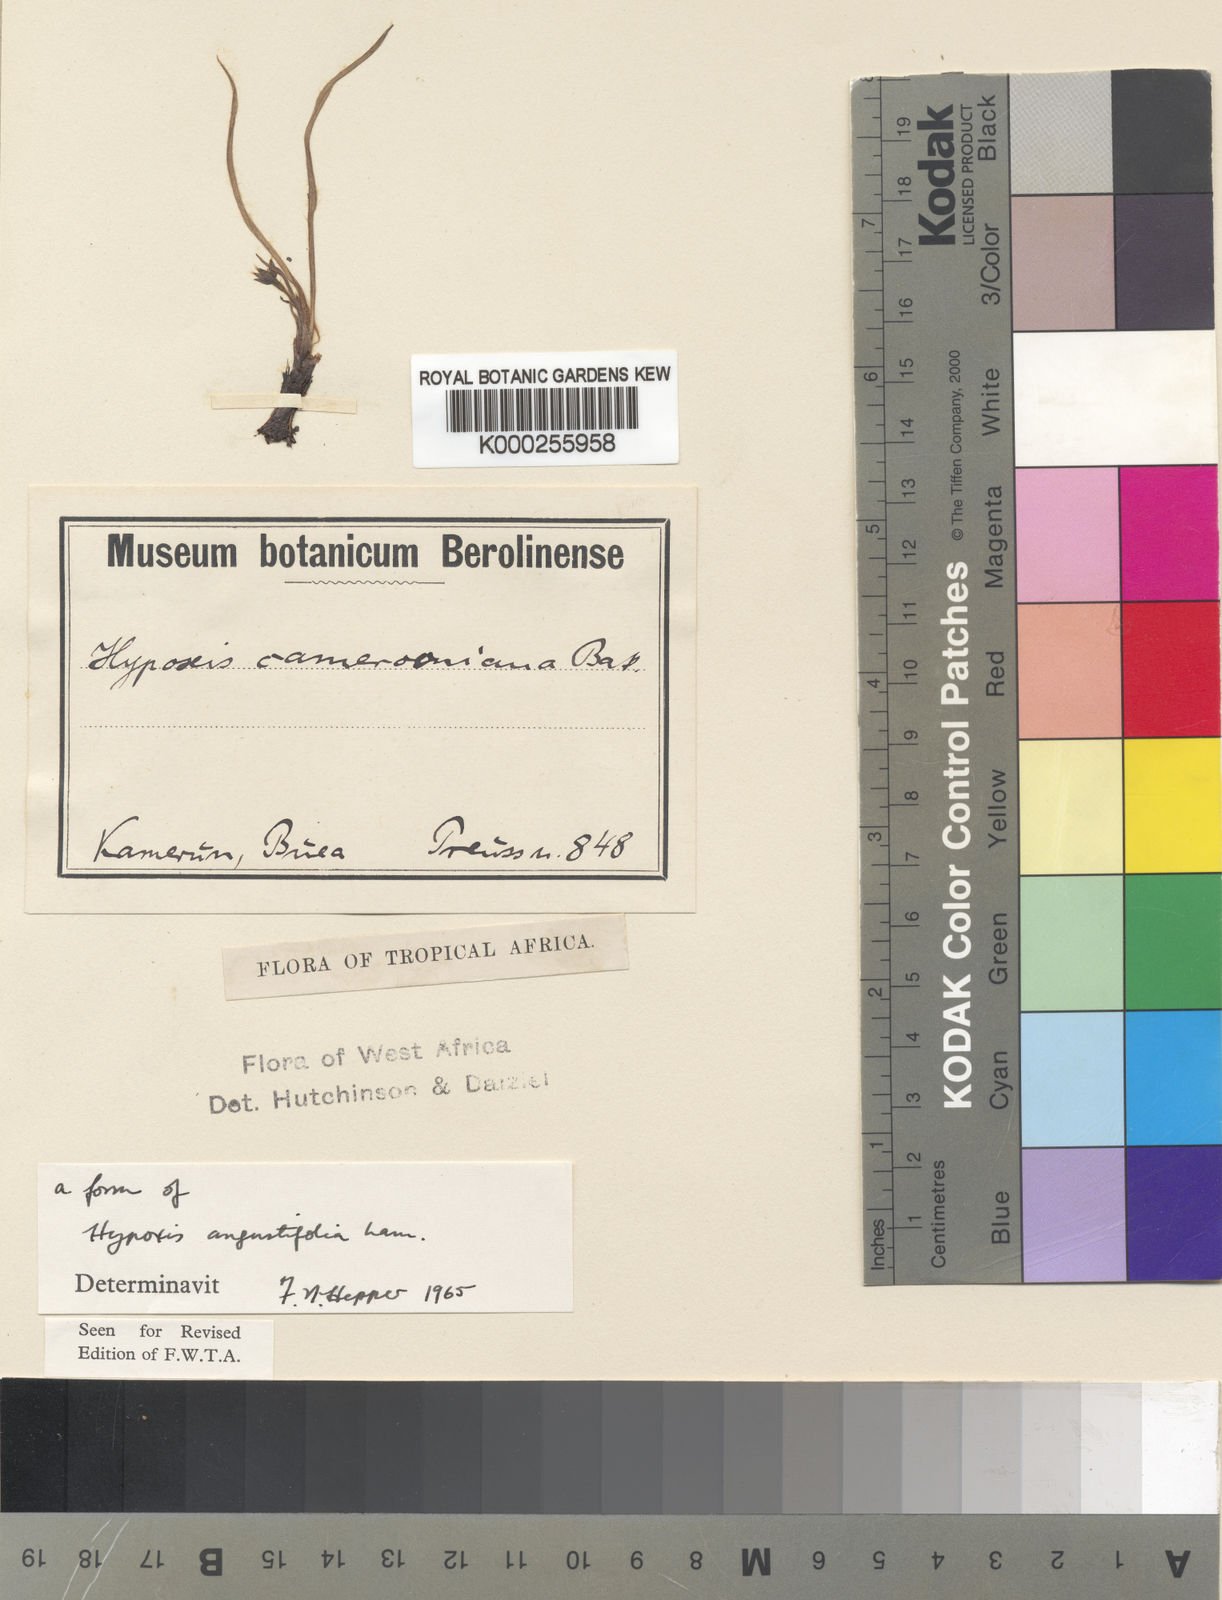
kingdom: Plantae
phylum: Tracheophyta
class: Liliopsida
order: Asparagales
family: Hypoxidaceae
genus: Hypoxis
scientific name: Hypoxis angustifolia
